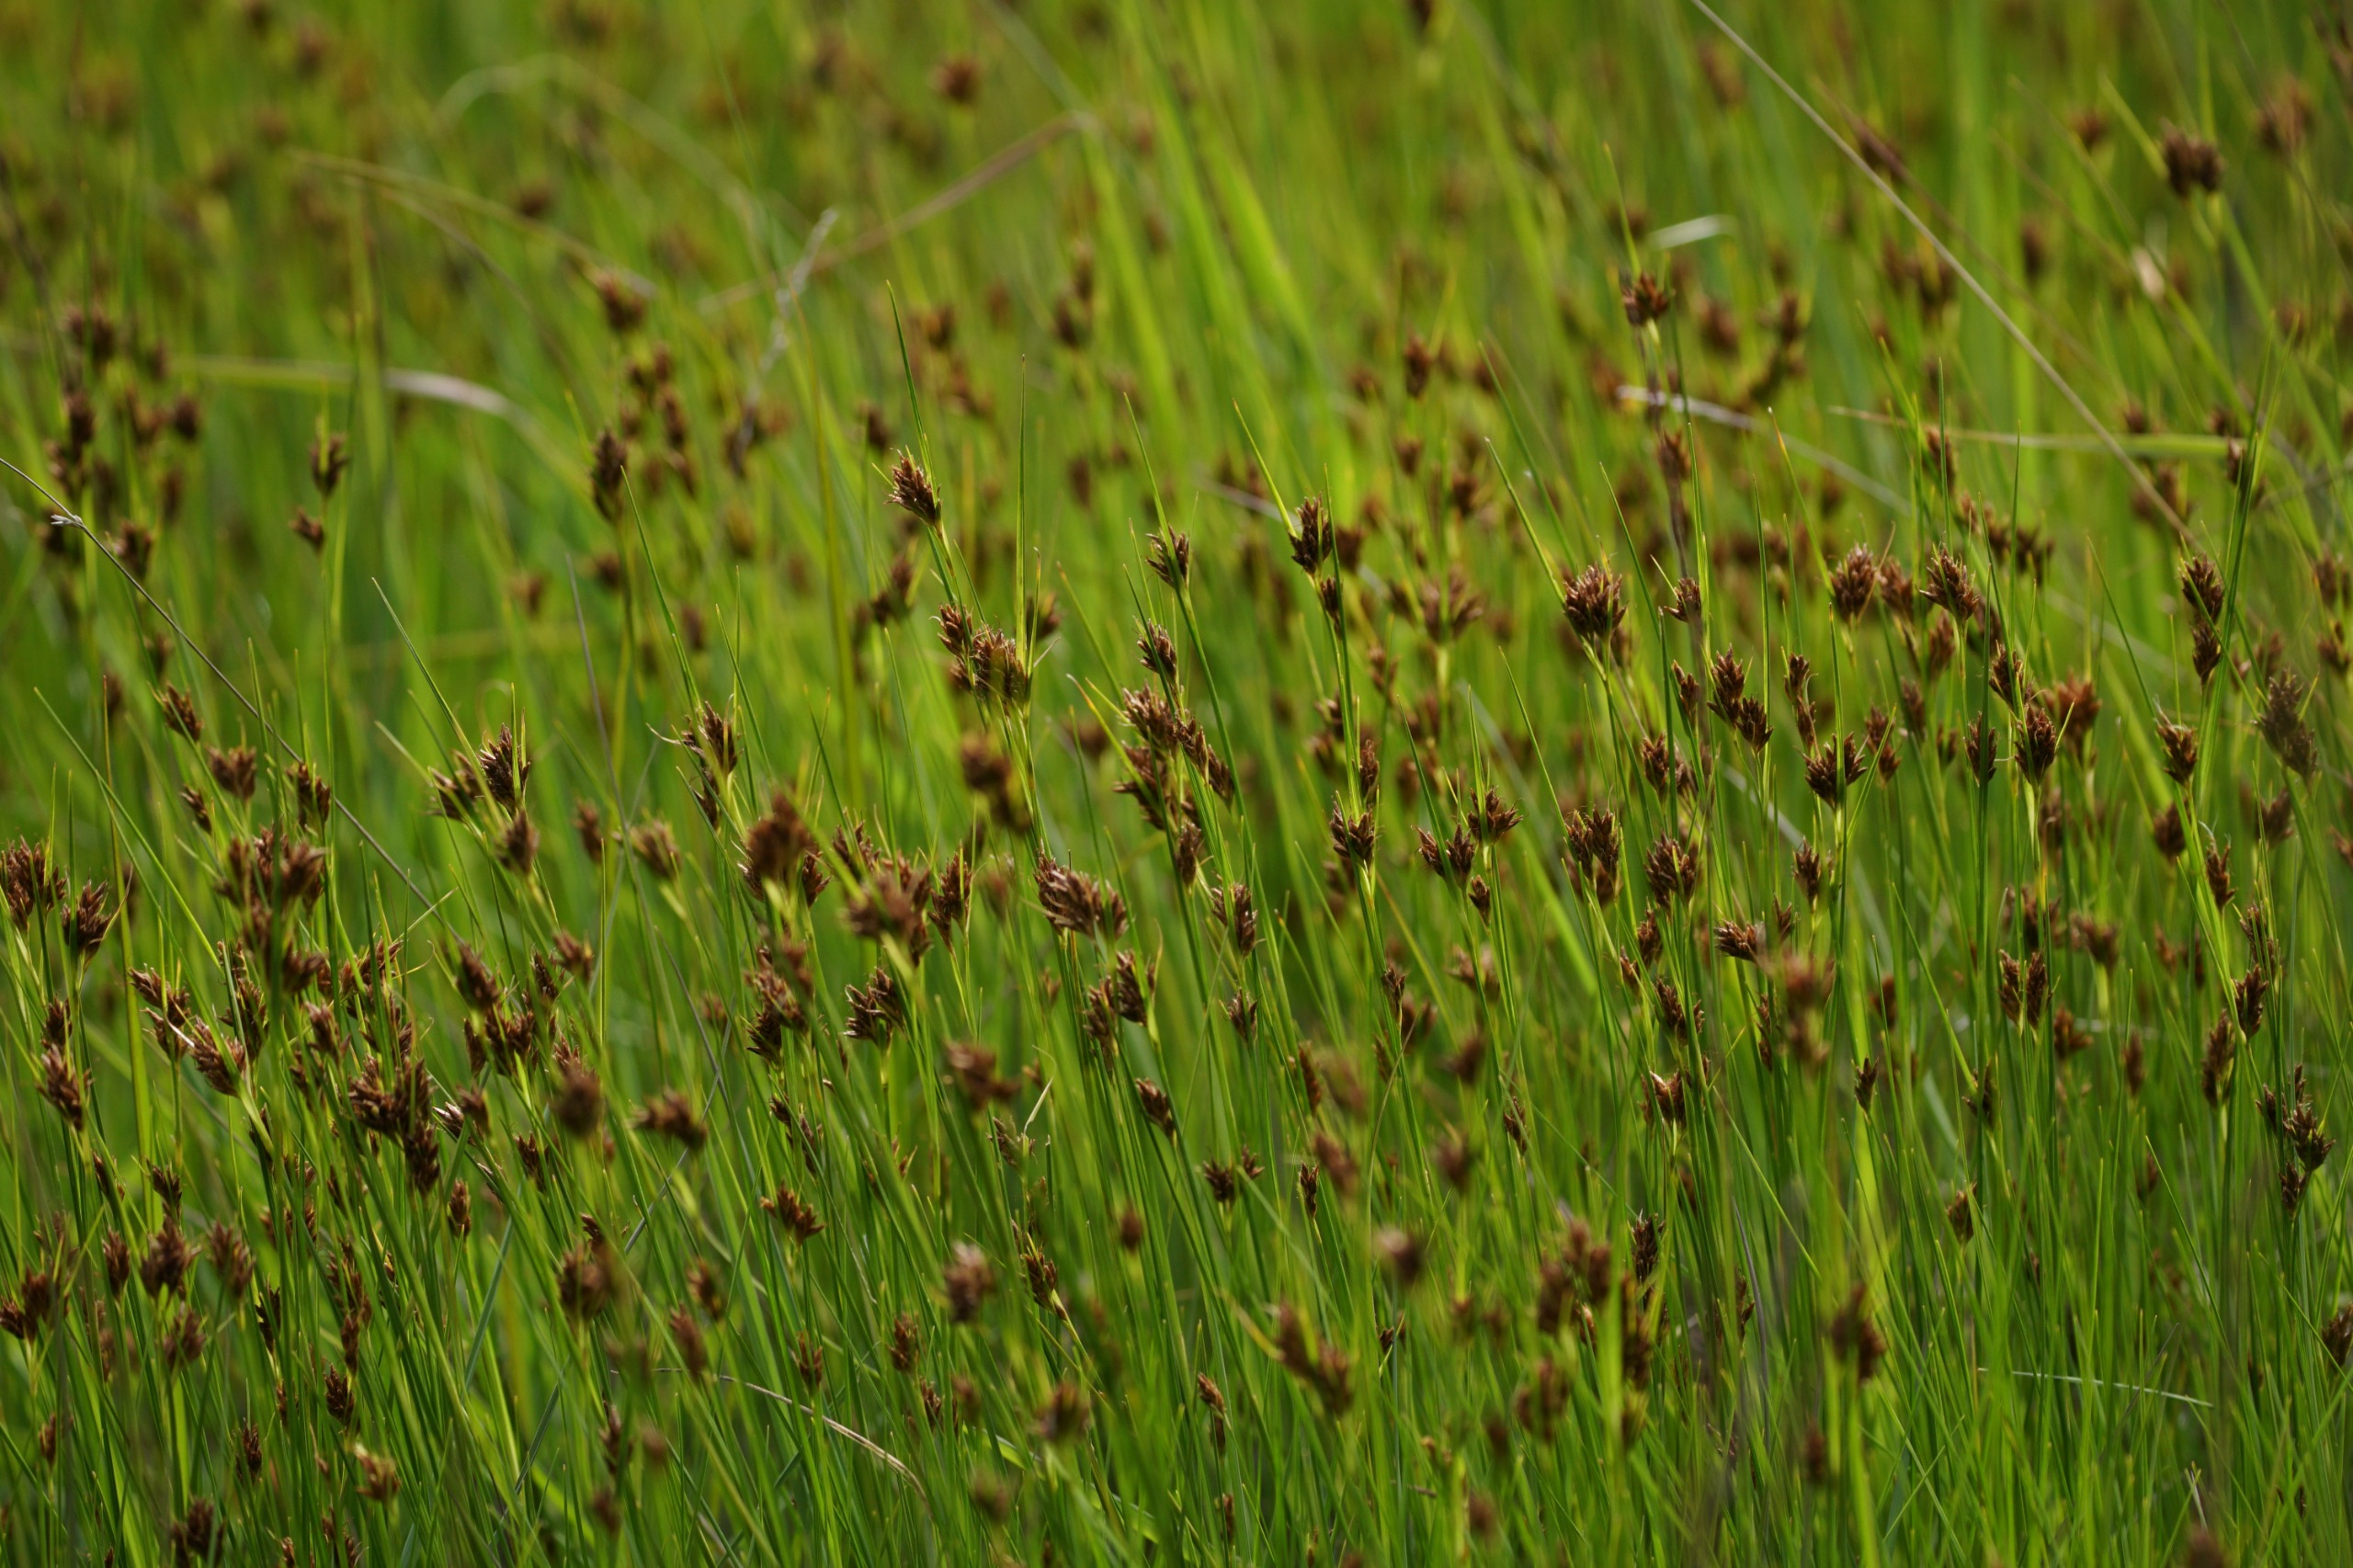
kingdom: Plantae
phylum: Tracheophyta
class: Liliopsida
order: Poales
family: Cyperaceae
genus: Rhynchospora
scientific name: Rhynchospora fusca
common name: Brun næbfrø
